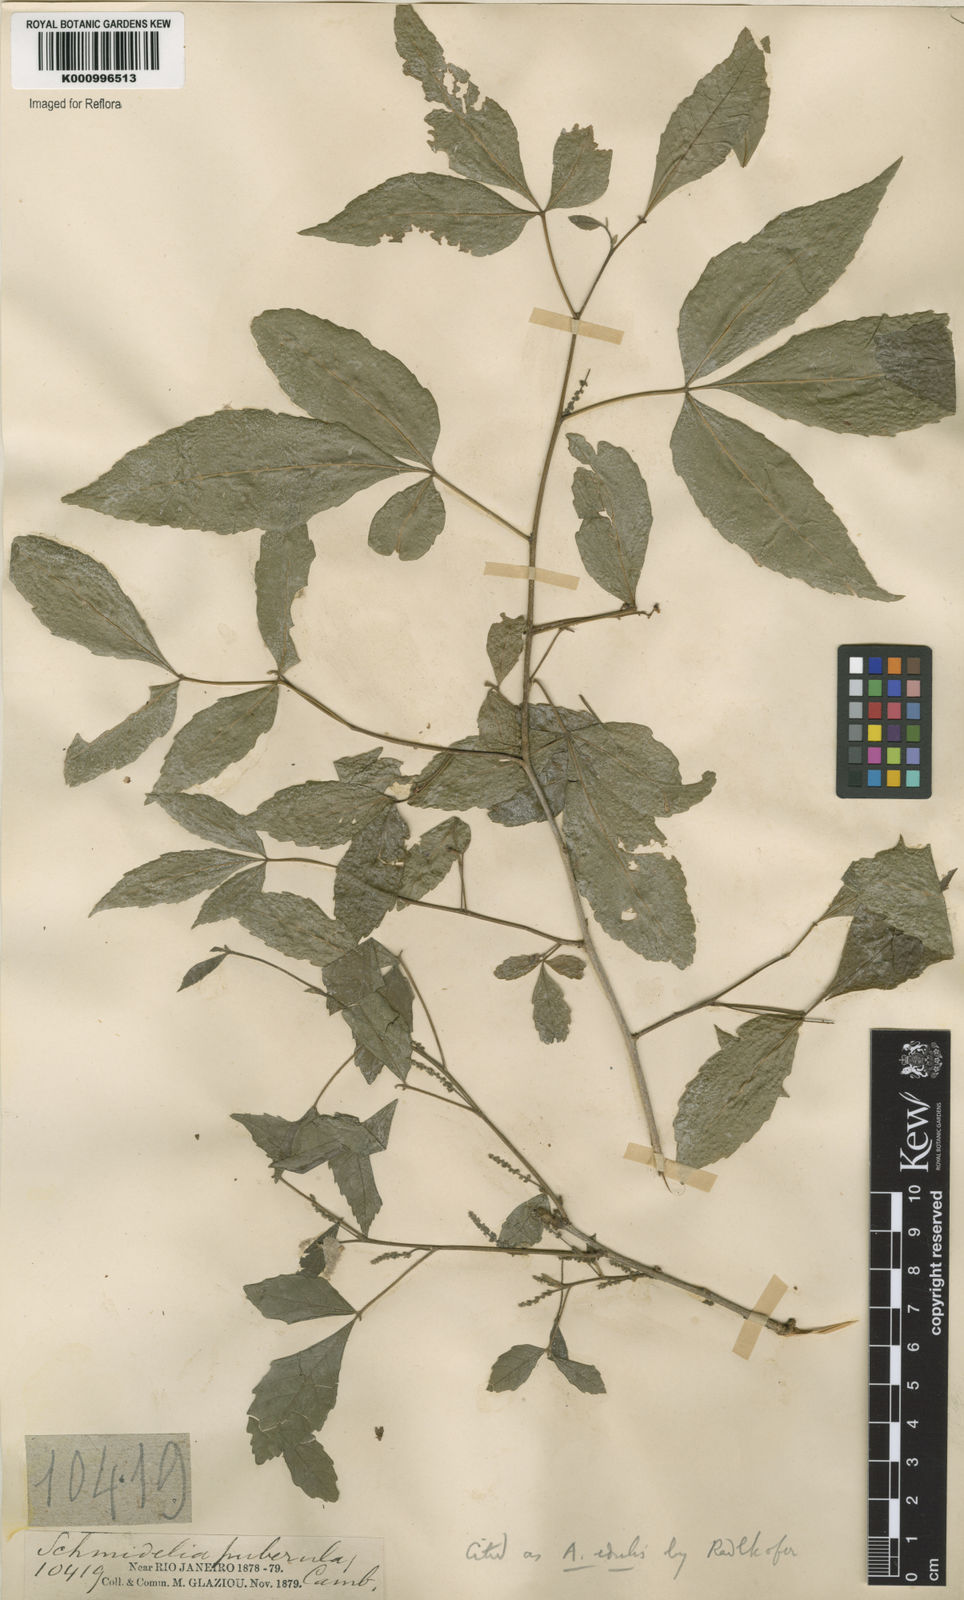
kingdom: Plantae
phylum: Tracheophyta
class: Magnoliopsida
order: Sapindales
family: Sapindaceae
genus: Allophylus
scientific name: Allophylus edulis
